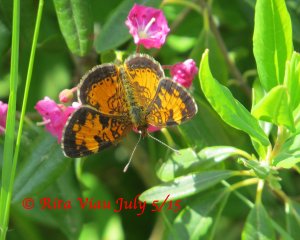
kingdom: Animalia
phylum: Arthropoda
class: Insecta
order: Lepidoptera
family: Nymphalidae
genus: Phyciodes
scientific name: Phyciodes tharos
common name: Northern Crescent
